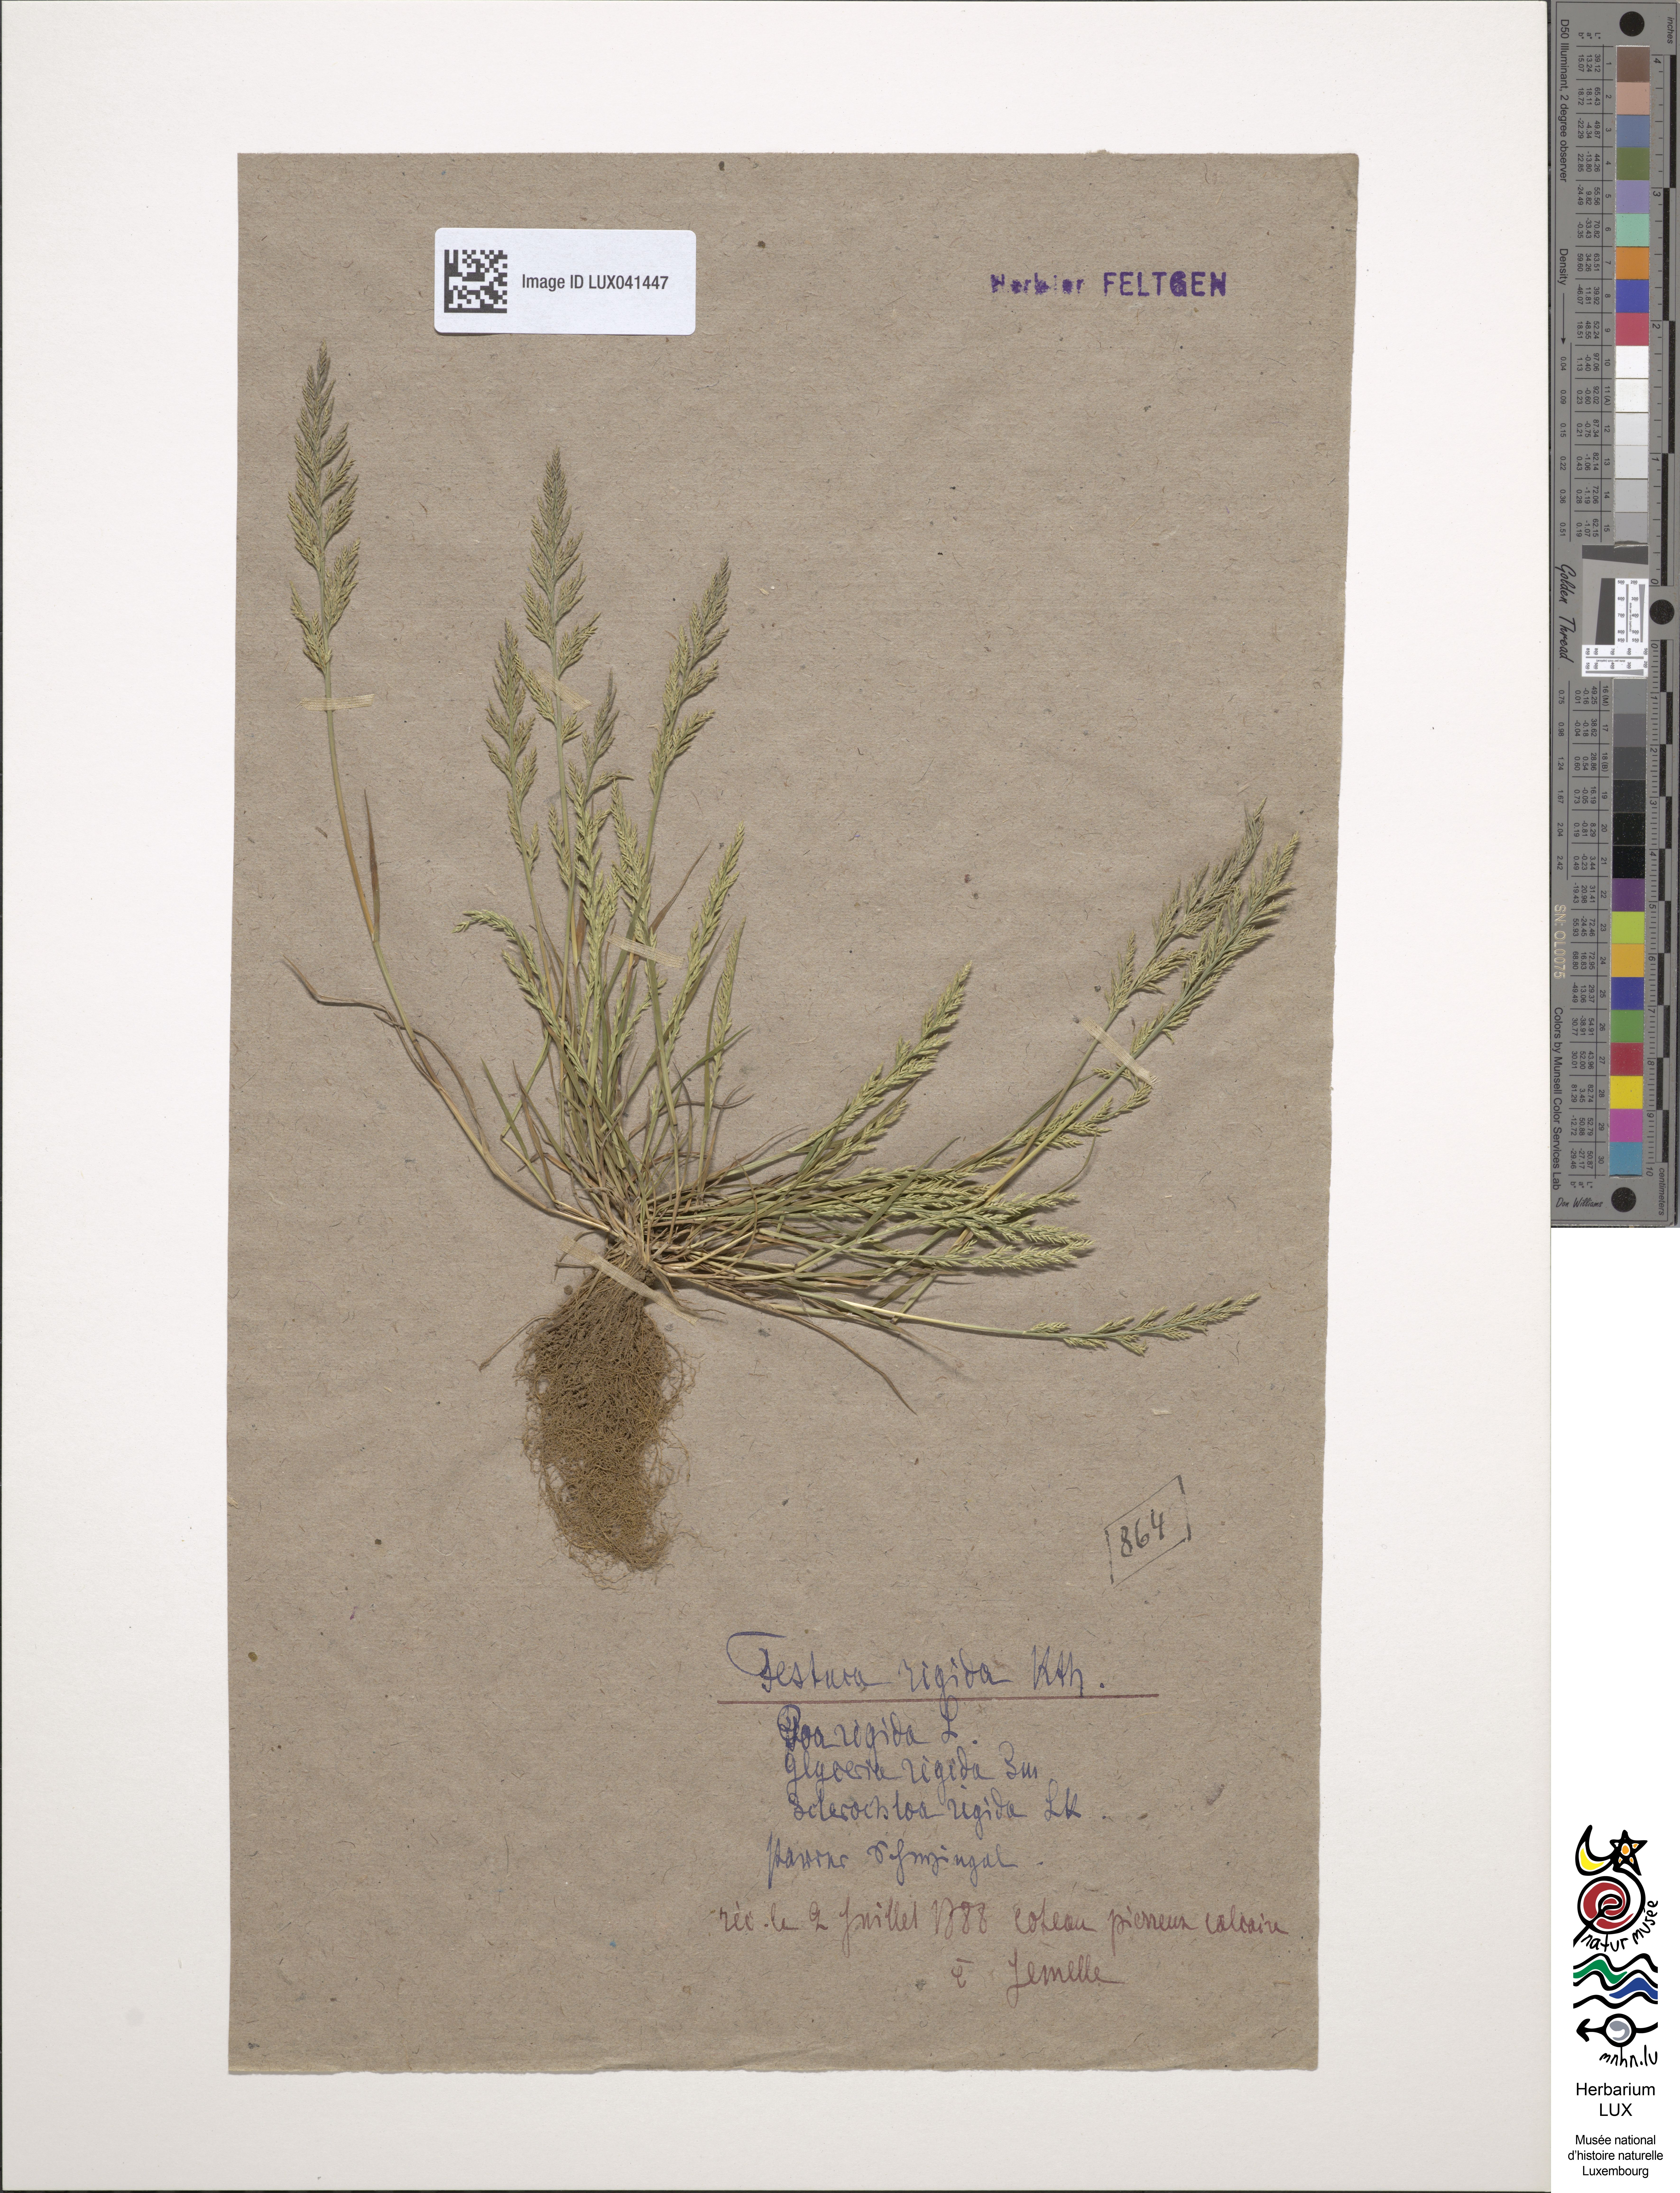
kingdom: Plantae
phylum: Tracheophyta
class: Liliopsida
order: Poales
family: Poaceae
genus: Catapodium
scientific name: Catapodium rigidum
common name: Fern-grass
